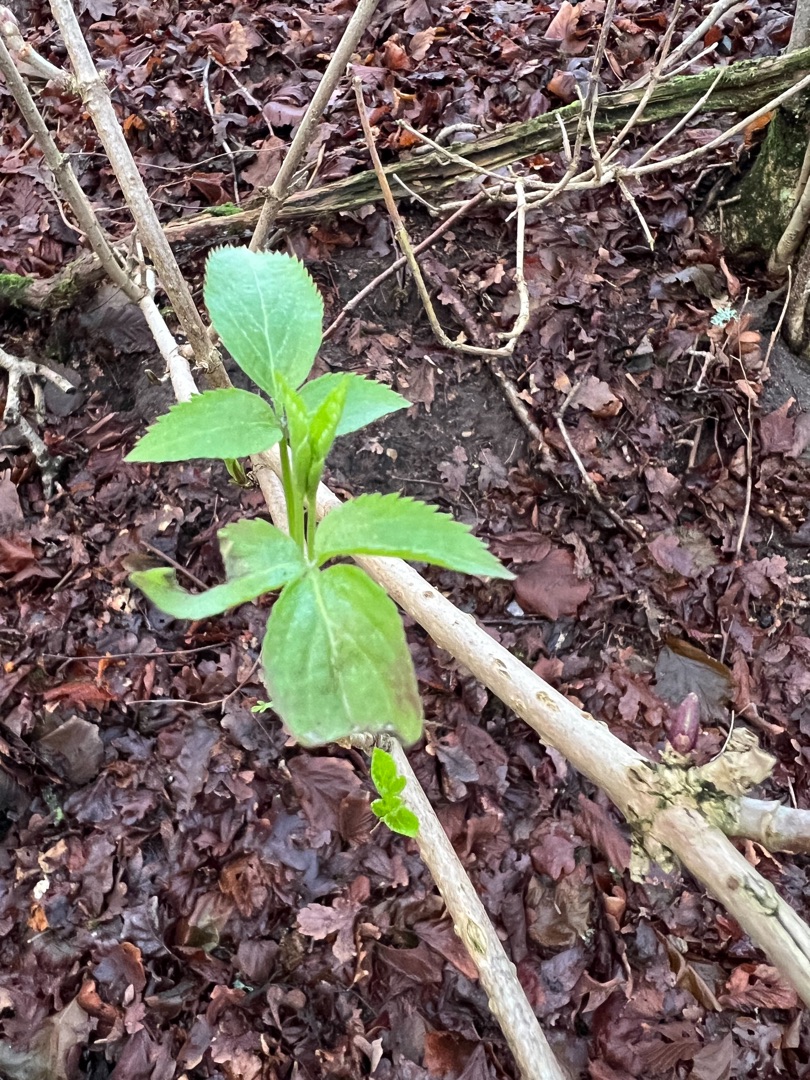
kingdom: Plantae
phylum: Tracheophyta
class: Magnoliopsida
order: Dipsacales
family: Viburnaceae
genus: Sambucus
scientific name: Sambucus nigra
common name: Almindelig hyld
